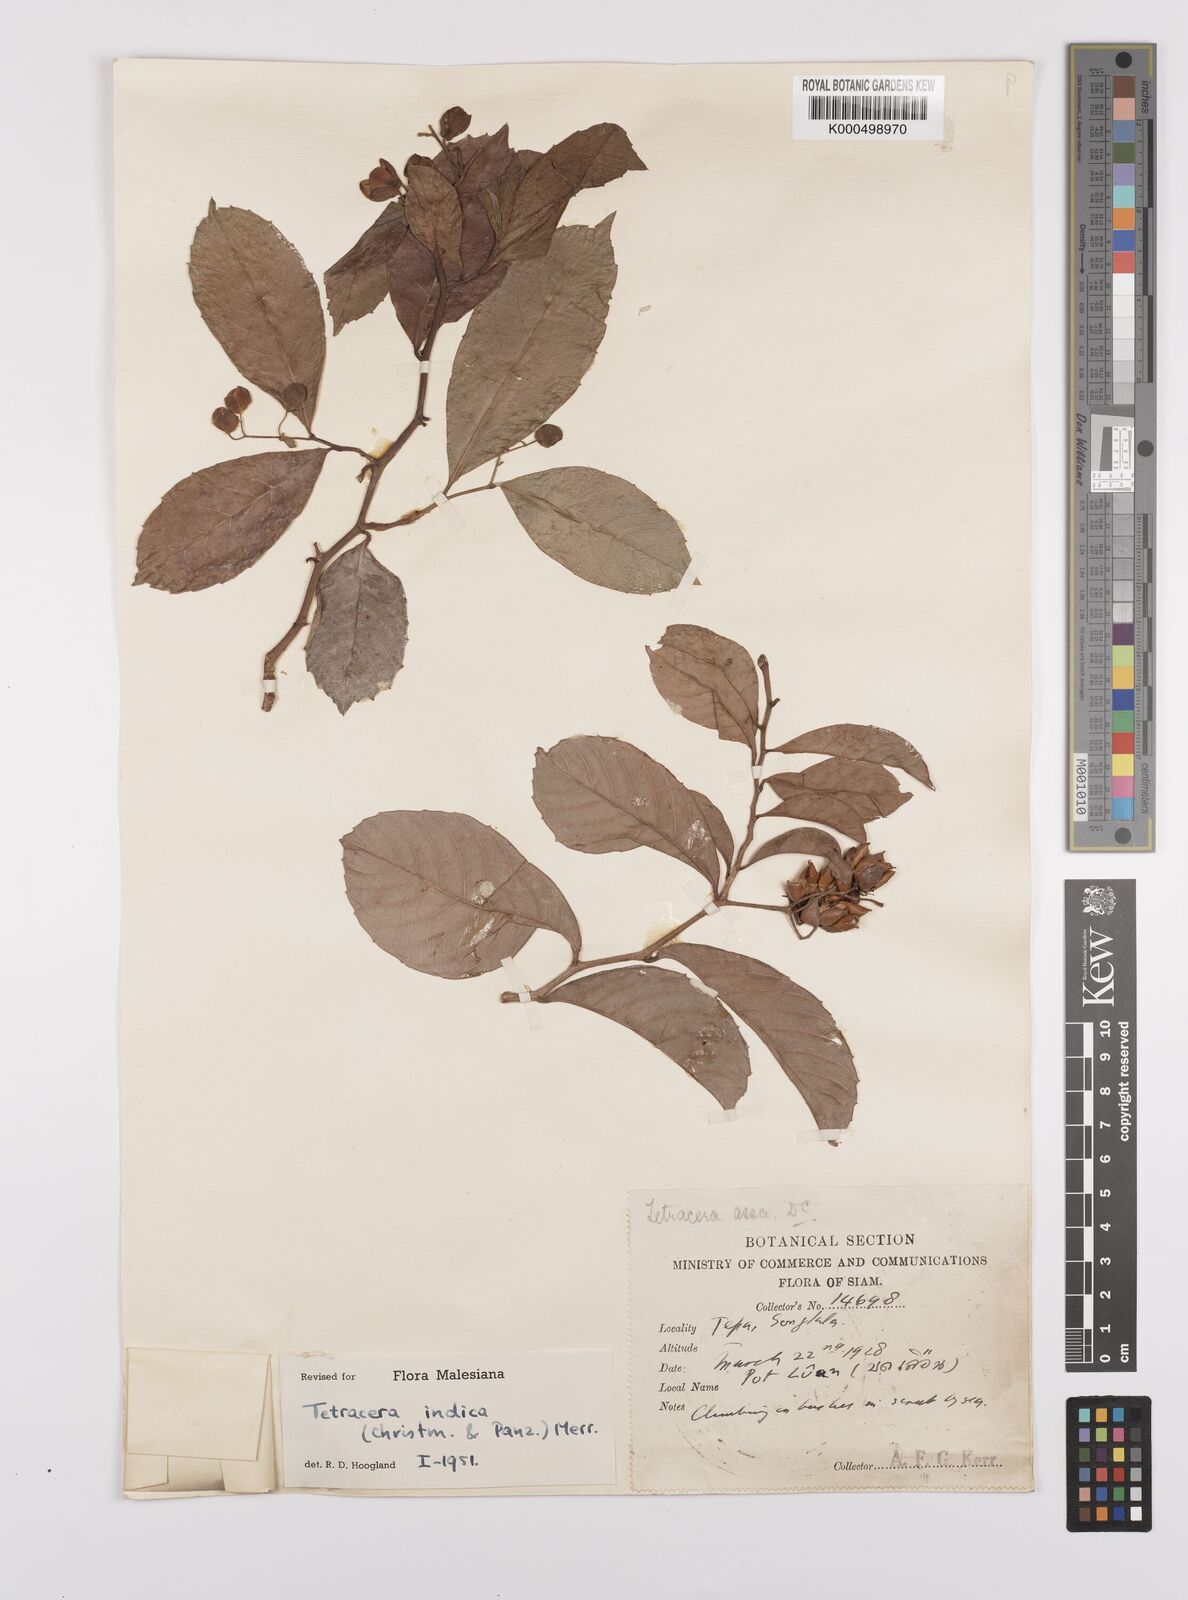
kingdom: Plantae
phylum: Tracheophyta
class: Magnoliopsida
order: Dilleniales
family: Dilleniaceae
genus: Tetracera
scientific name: Tetracera indica
